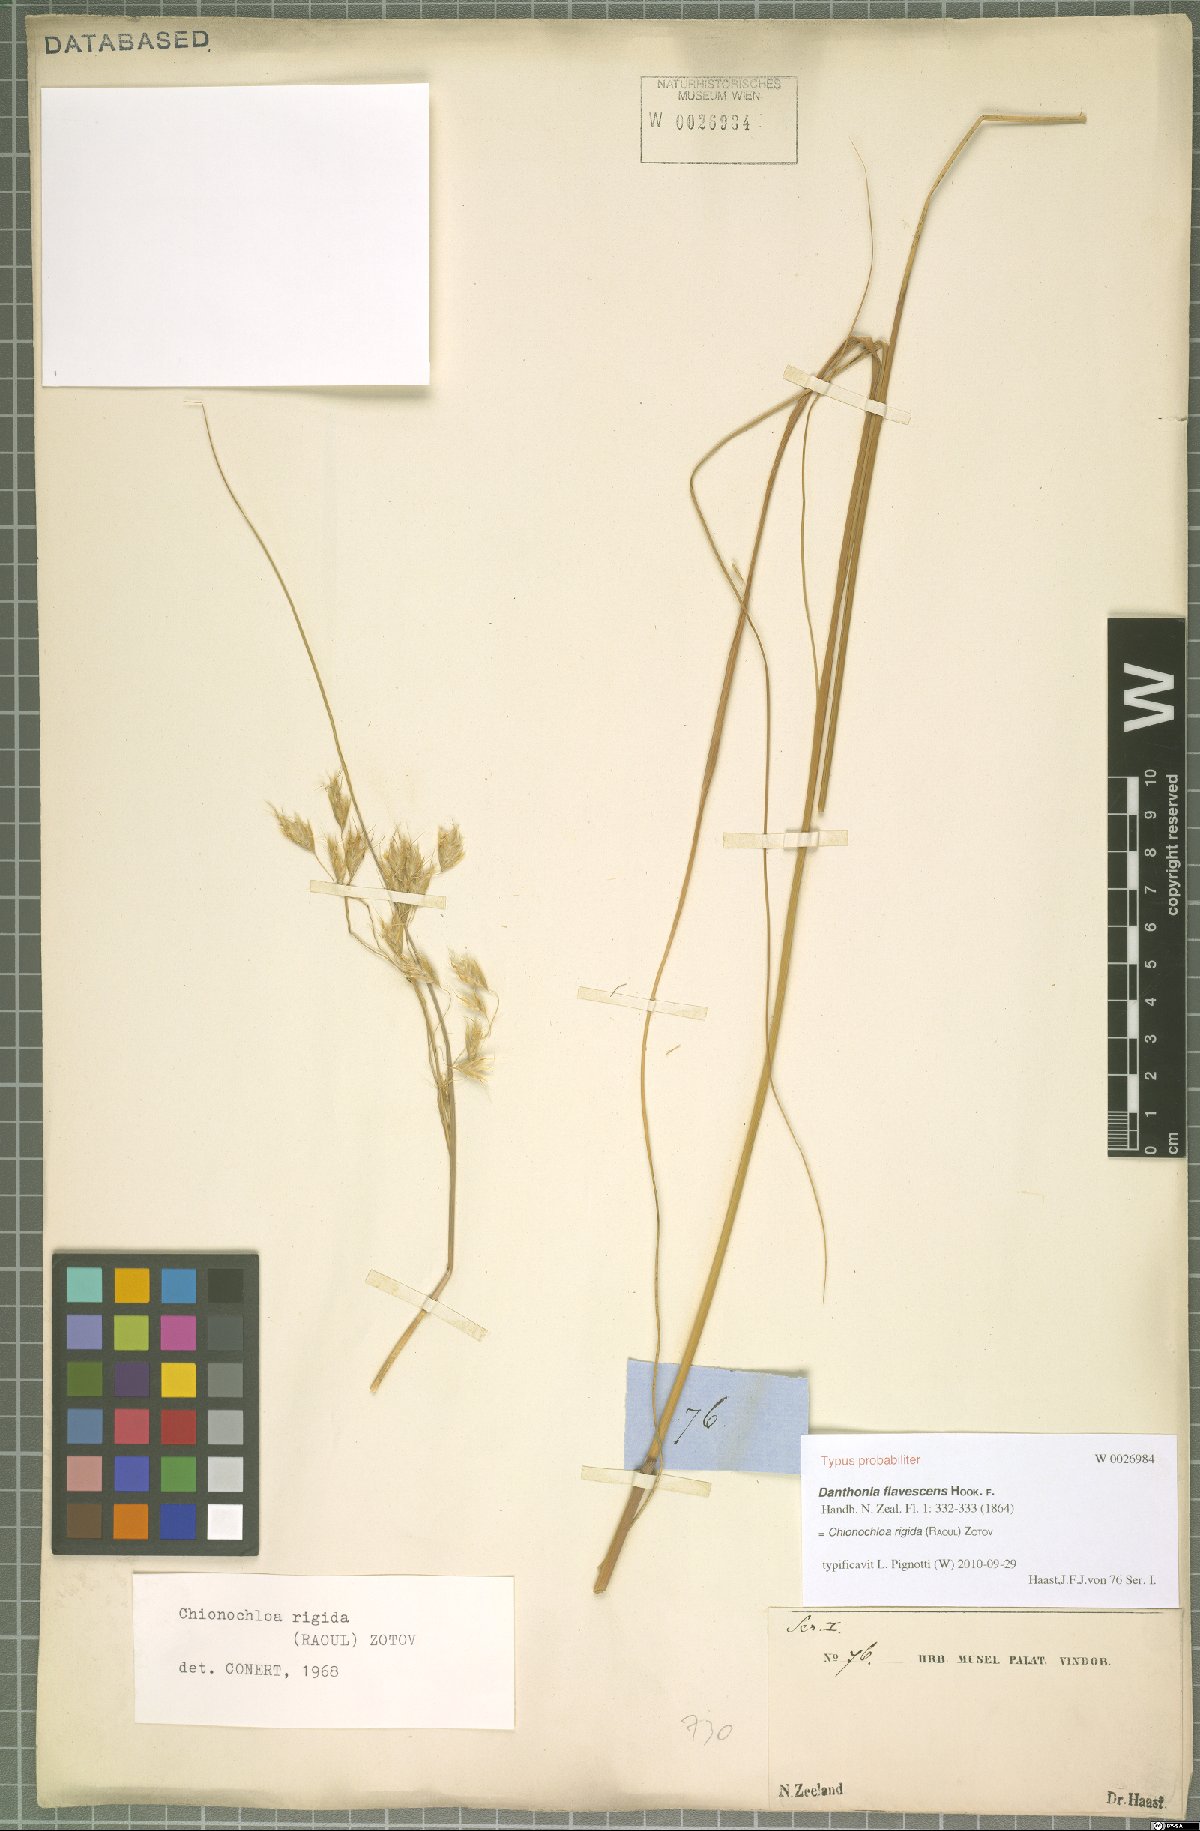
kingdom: Plantae
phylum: Tracheophyta
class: Liliopsida
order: Poales
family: Poaceae
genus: Chionochloa
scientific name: Chionochloa rigida
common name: Narrow leaved snow tussock
